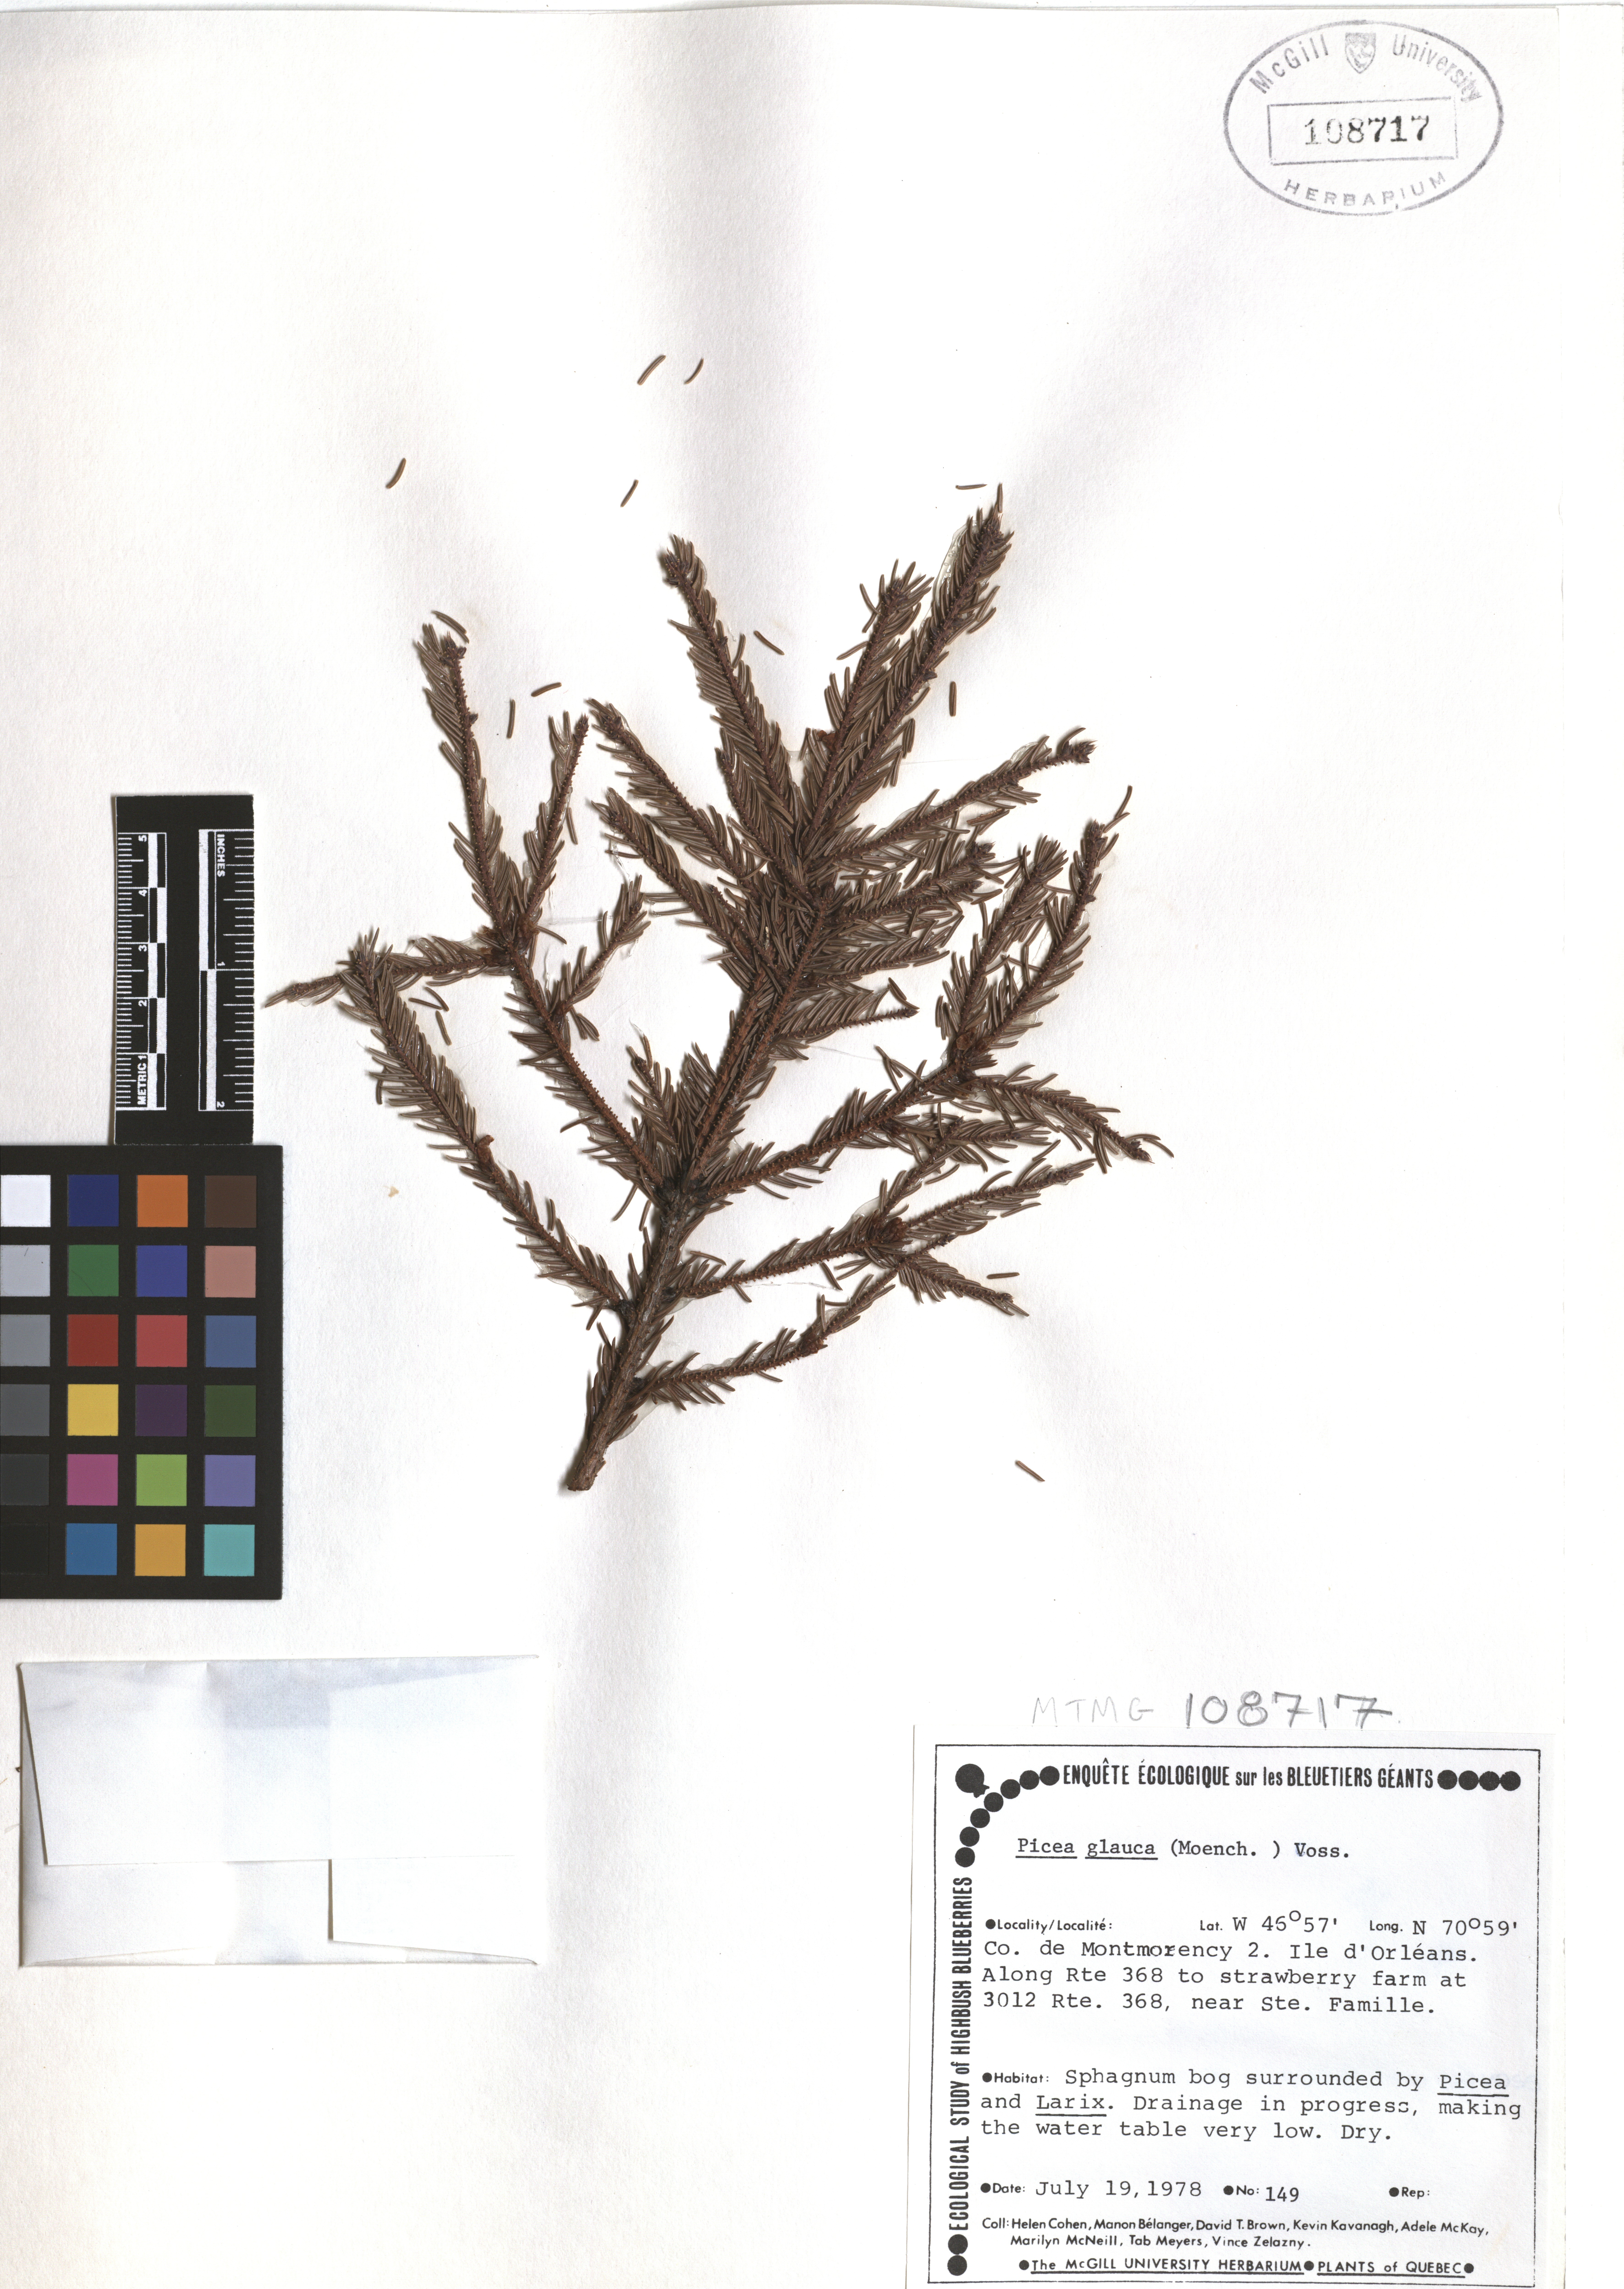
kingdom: Plantae
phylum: Tracheophyta
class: Pinopsida
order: Pinales
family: Pinaceae
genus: Picea
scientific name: Picea glauca
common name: White spruce
